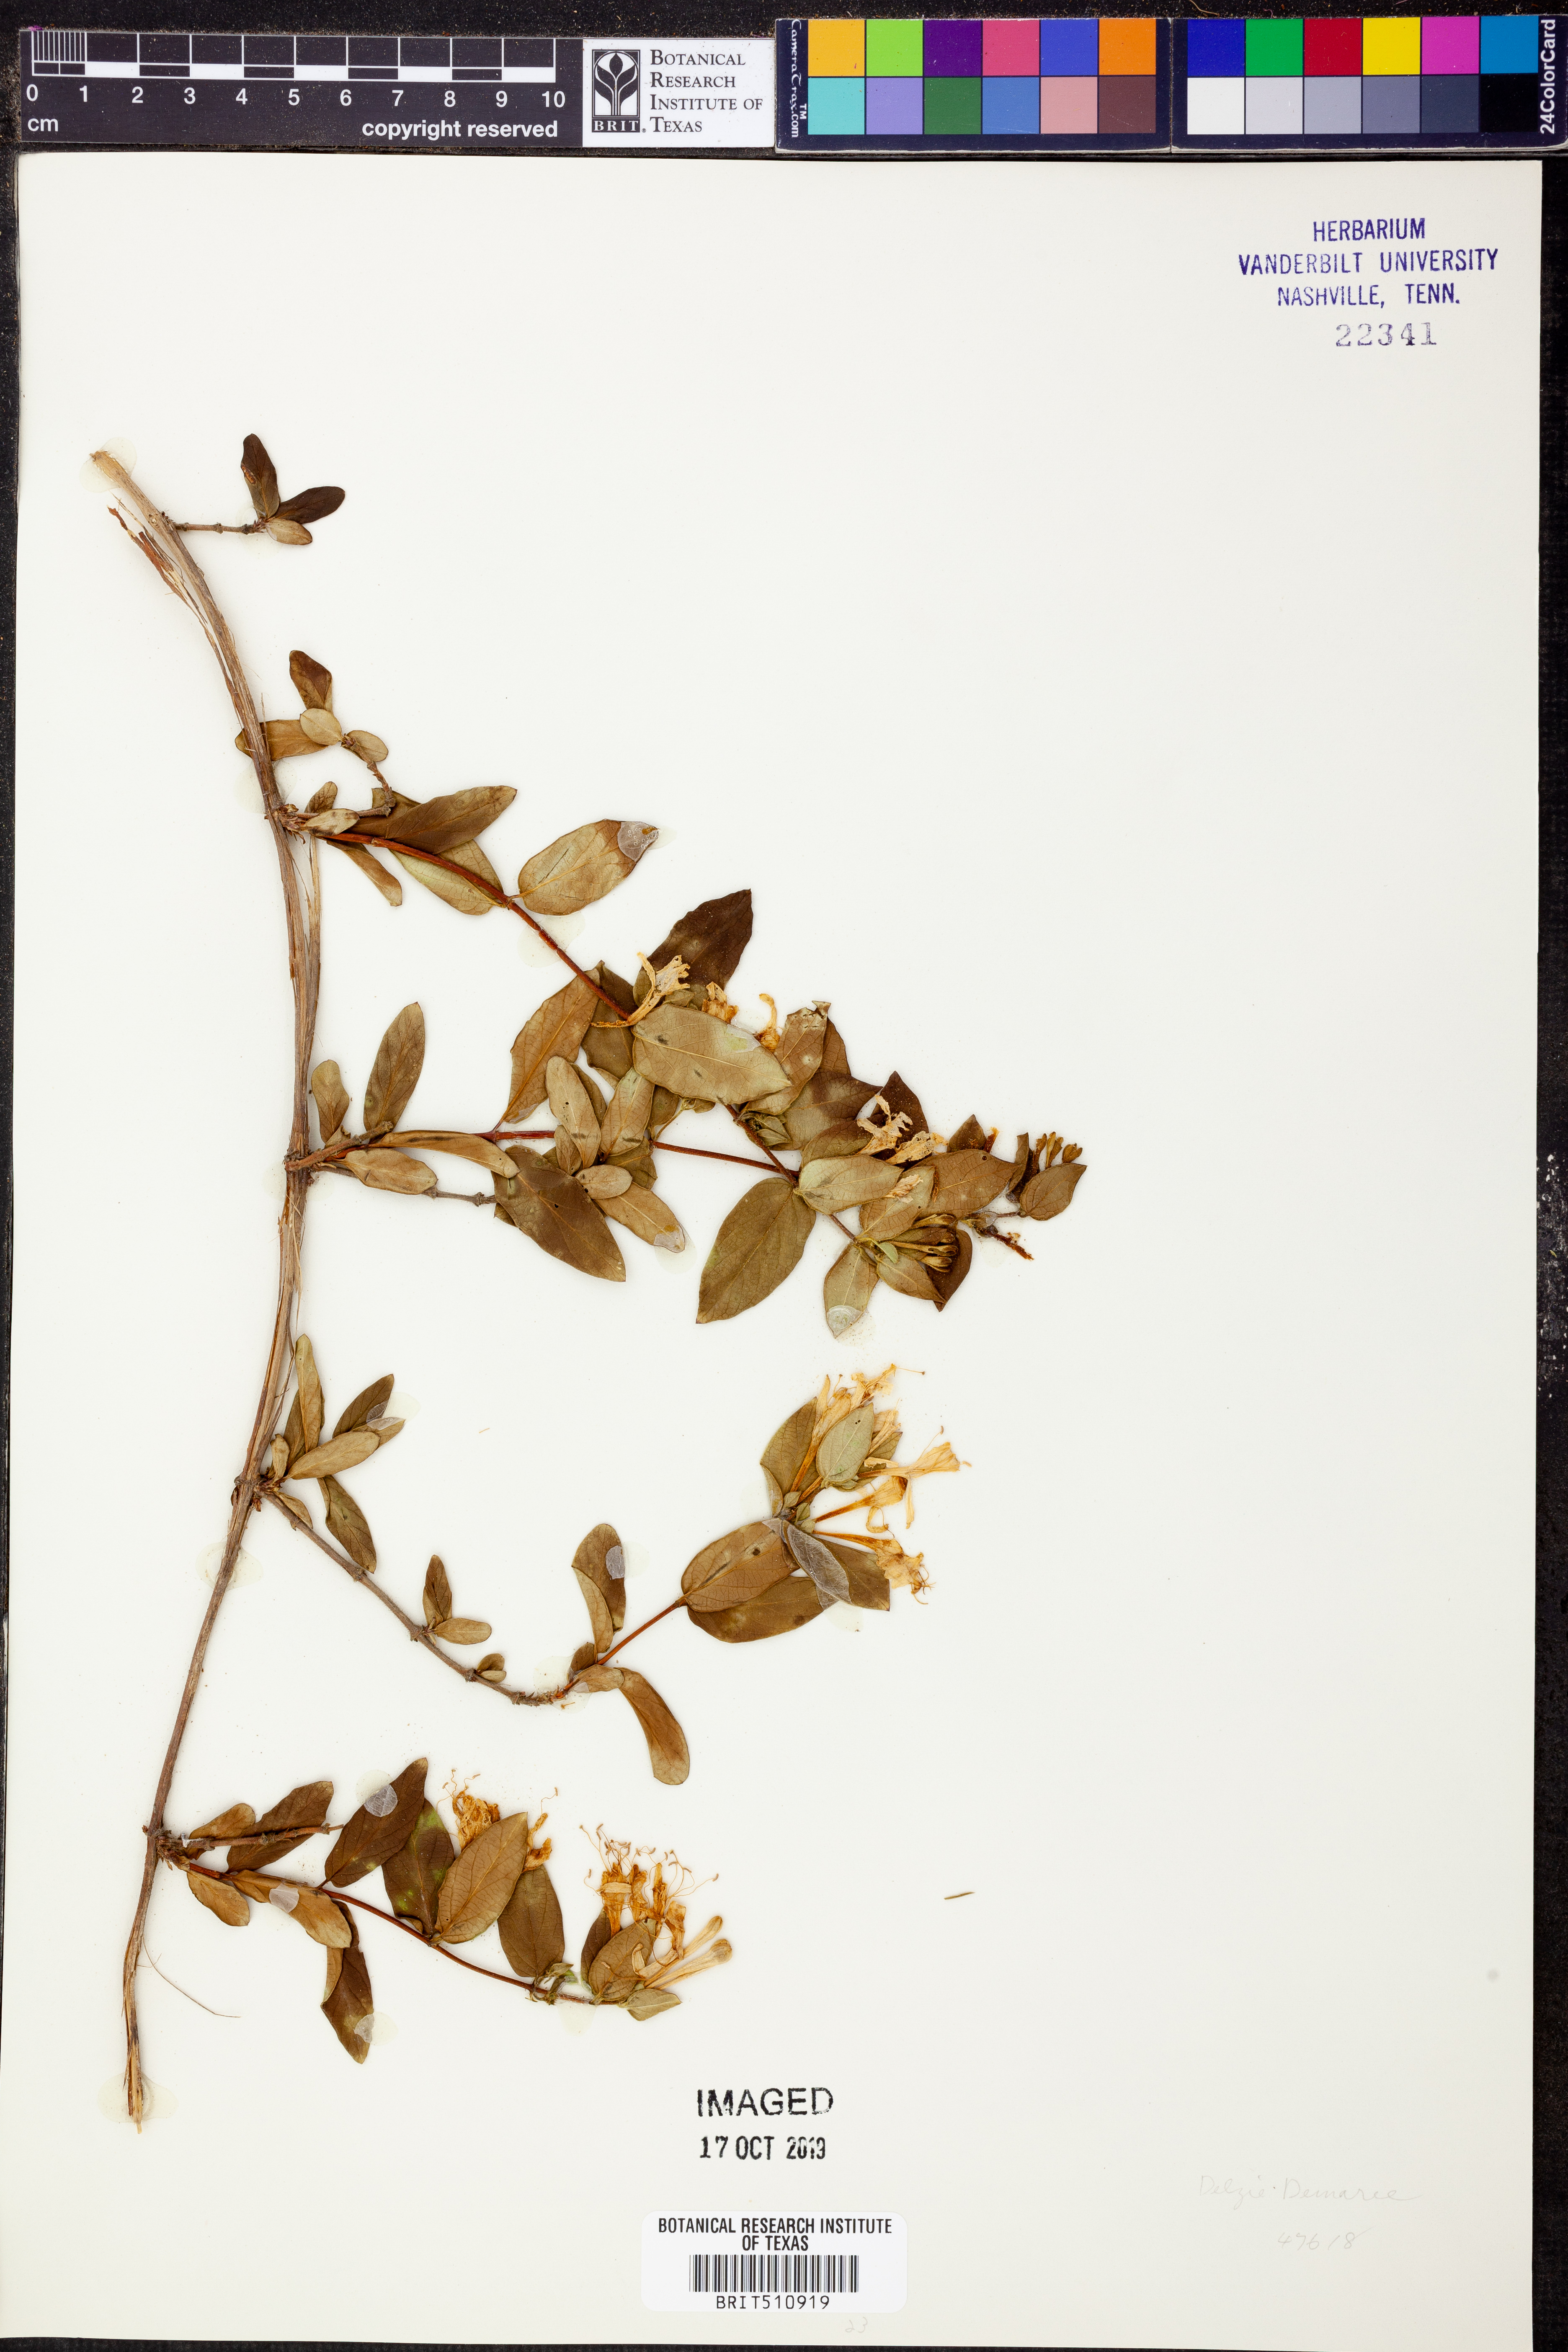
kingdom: Plantae
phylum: Tracheophyta
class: Magnoliopsida
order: Dipsacales
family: Caprifoliaceae
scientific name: Caprifoliaceae
